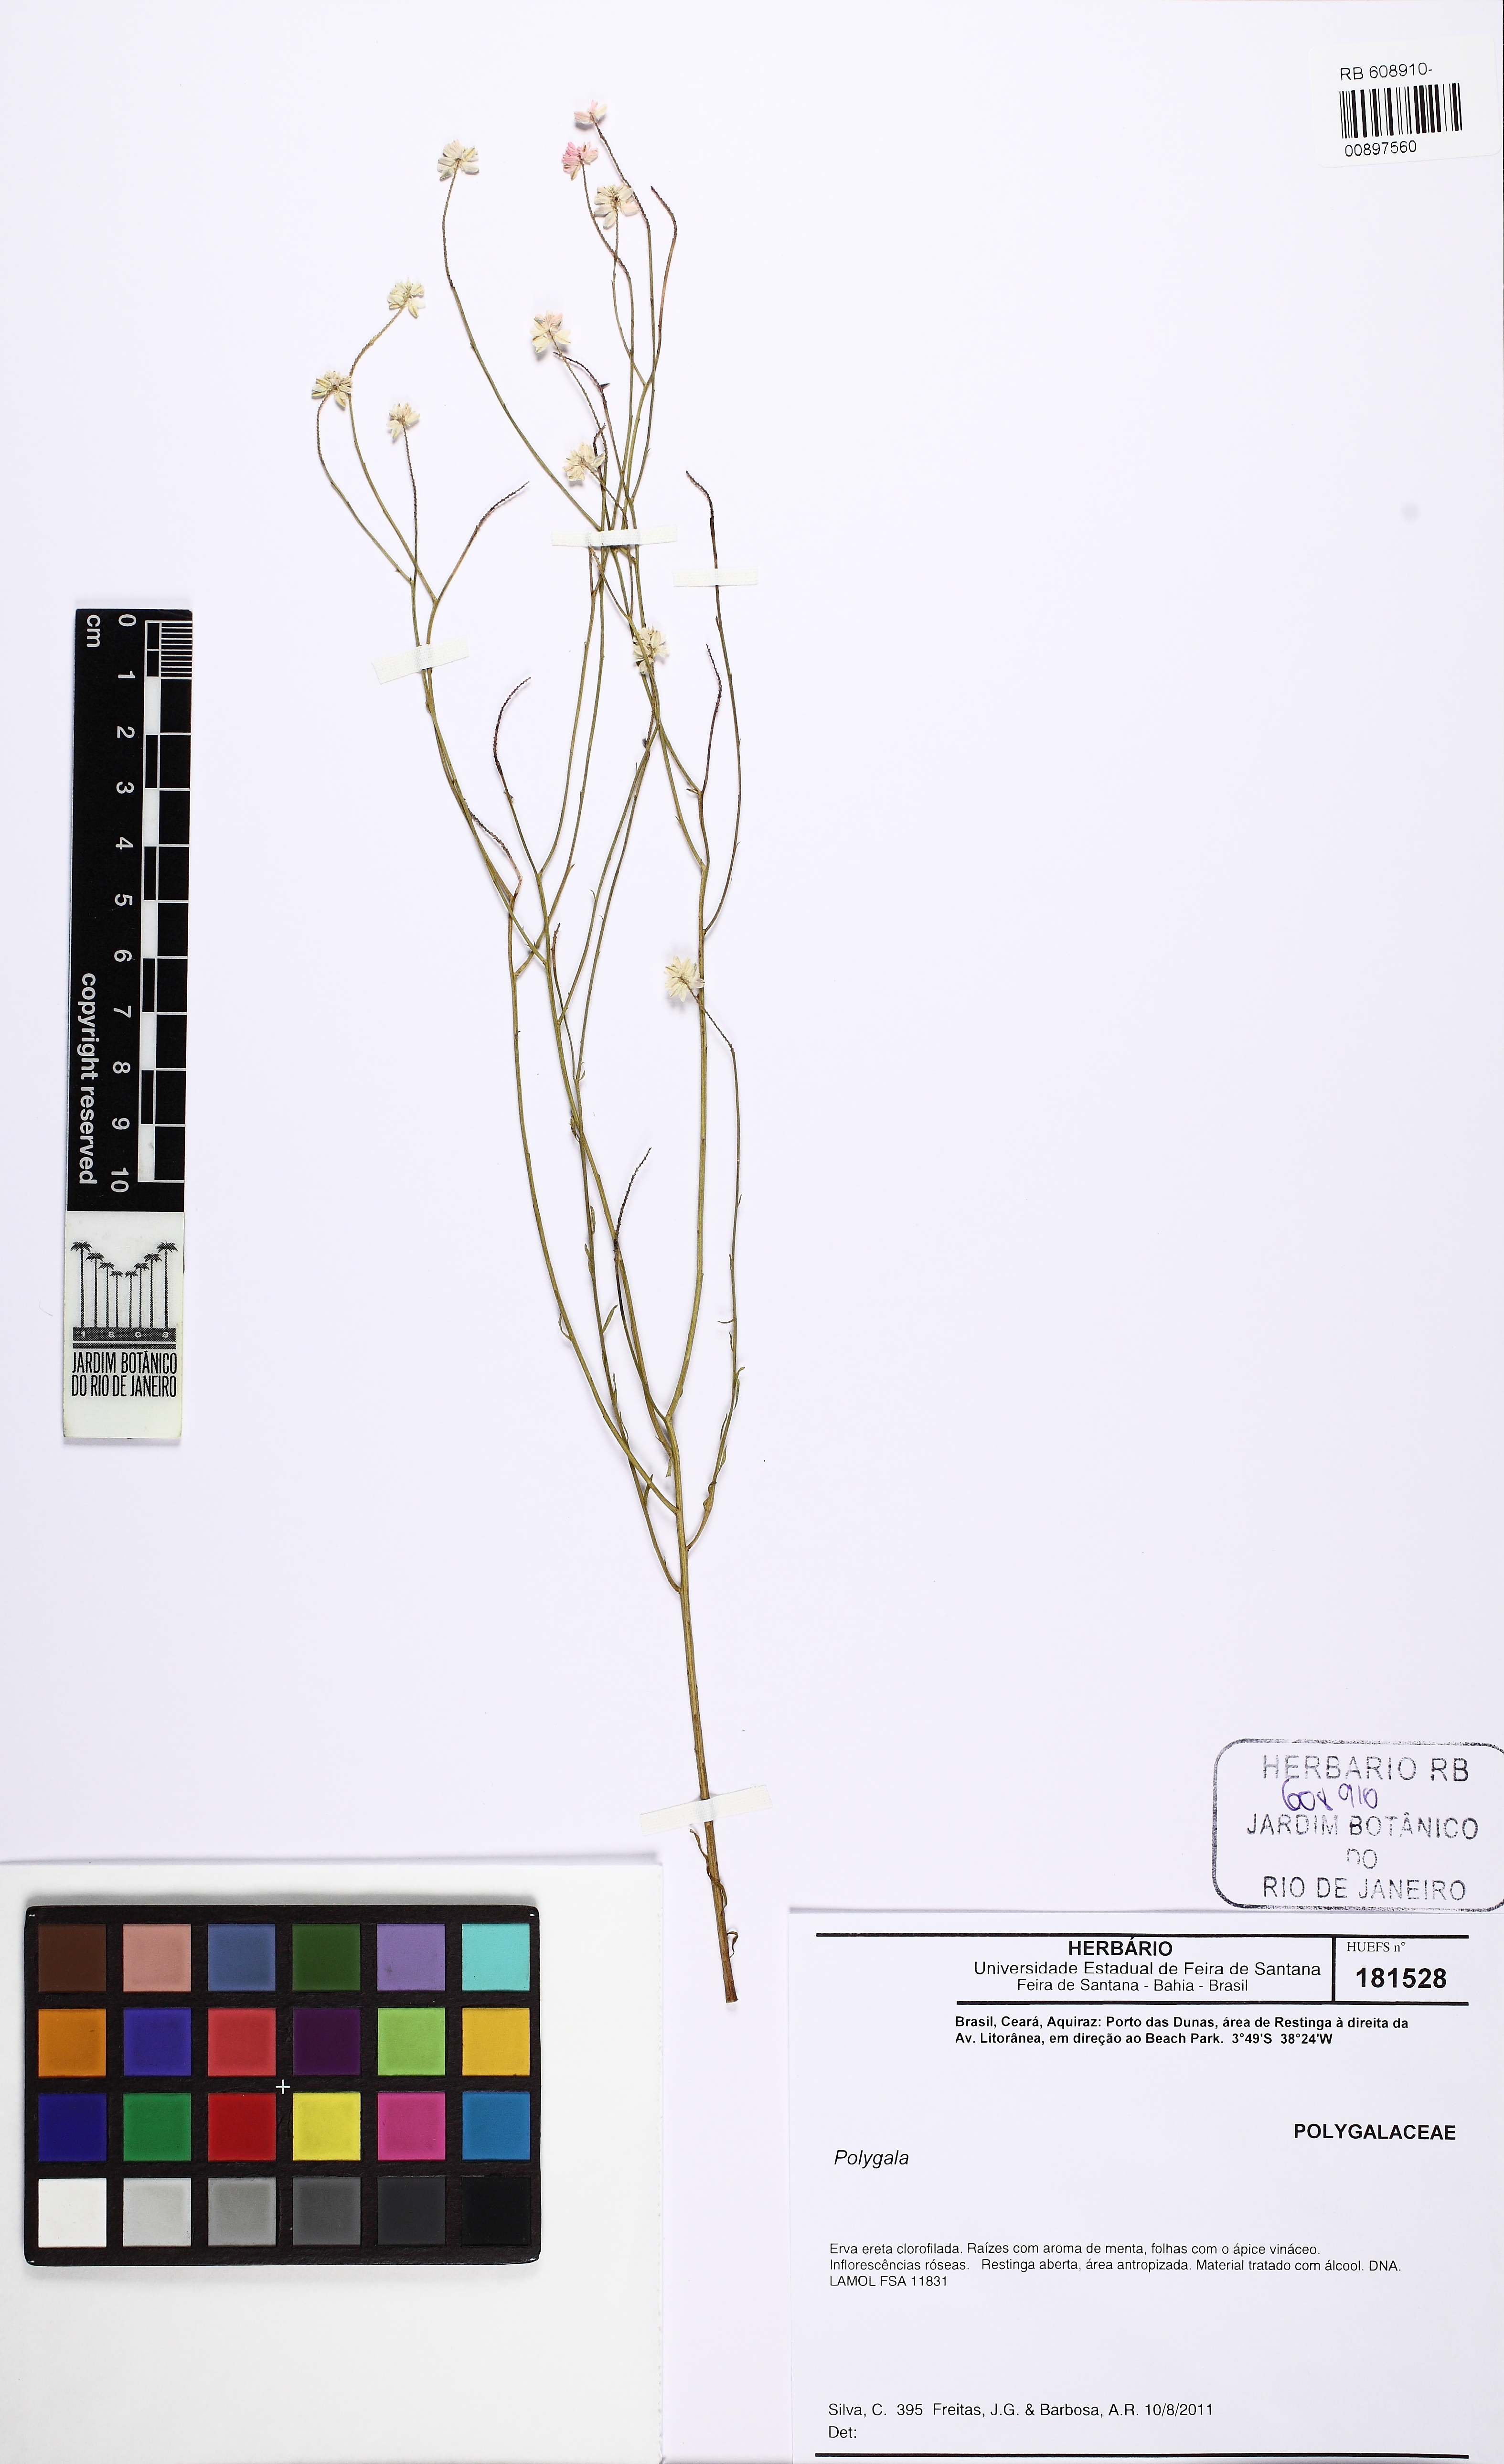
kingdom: Plantae
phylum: Tracheophyta
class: Magnoliopsida
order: Fabales
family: Polygalaceae
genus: Polygala
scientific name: Polygala trichosperma
